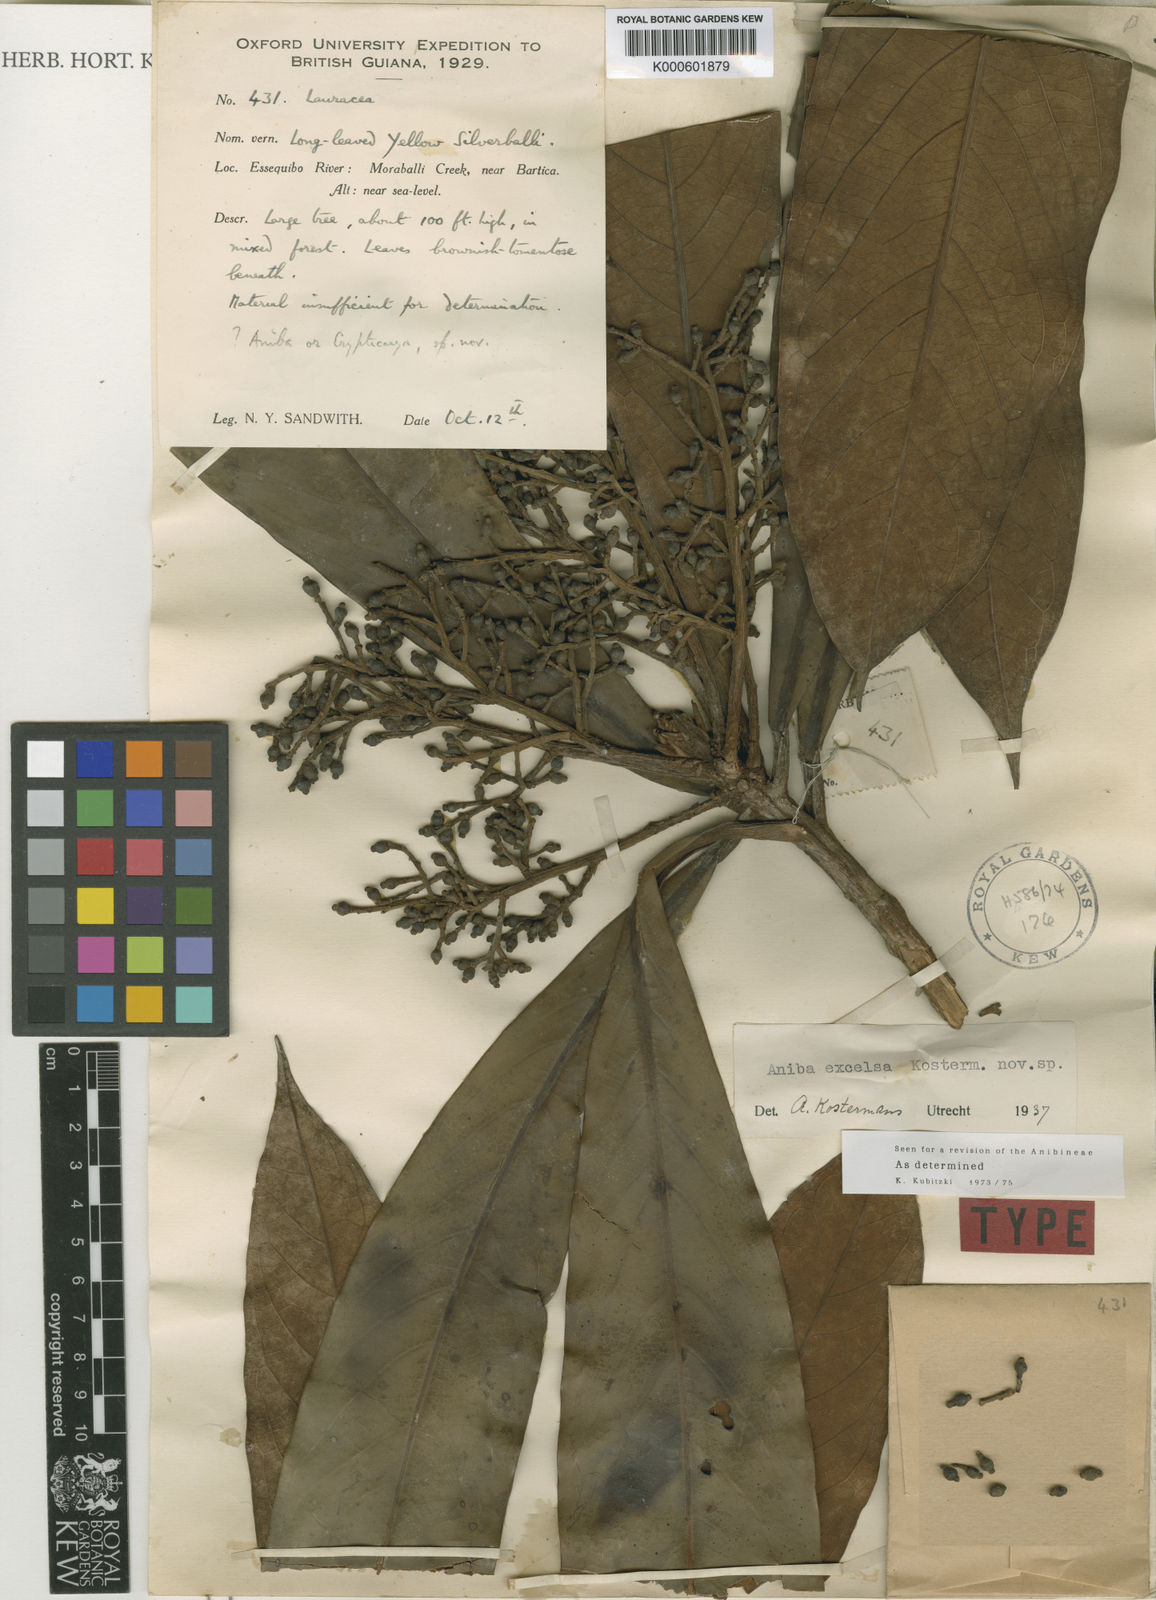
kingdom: Plantae
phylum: Tracheophyta
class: Magnoliopsida
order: Laurales
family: Lauraceae
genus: Aniba
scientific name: Aniba excelsa
